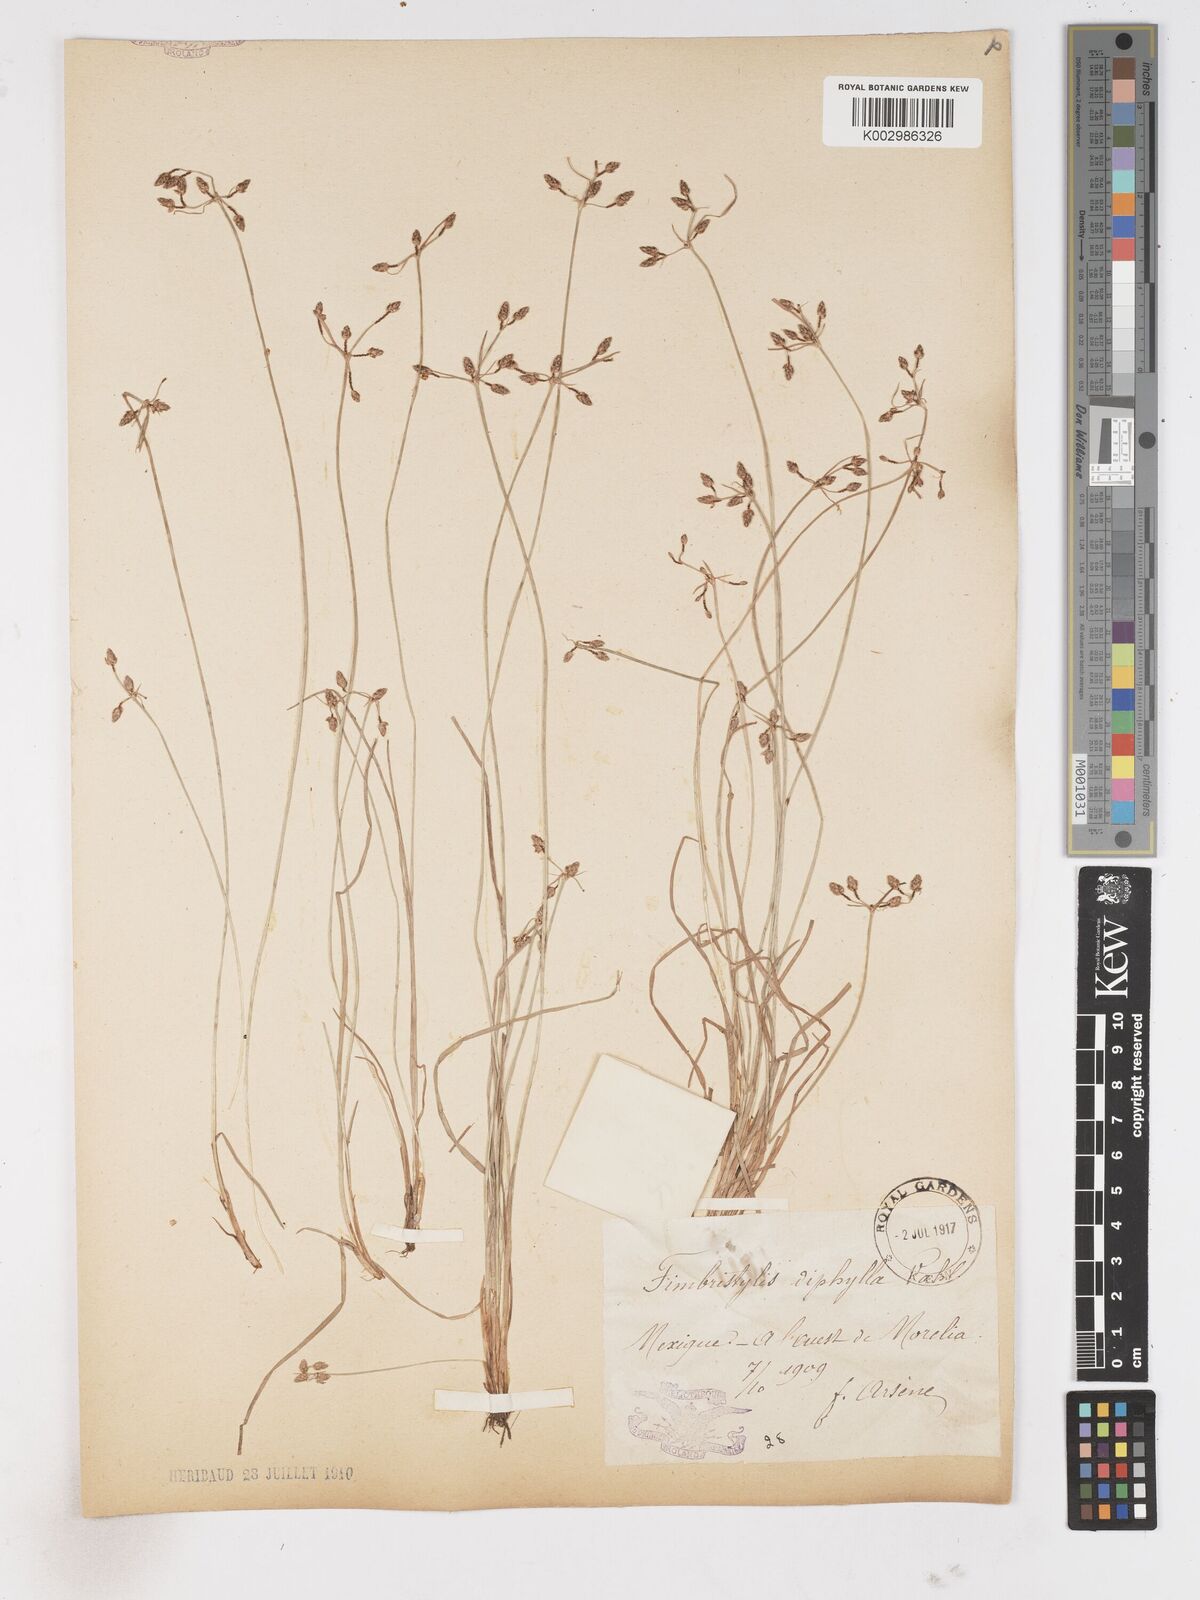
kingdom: Plantae
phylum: Tracheophyta
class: Liliopsida
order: Poales
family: Cyperaceae
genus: Fimbristylis
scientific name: Fimbristylis dichotoma
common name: Forked fimbry
